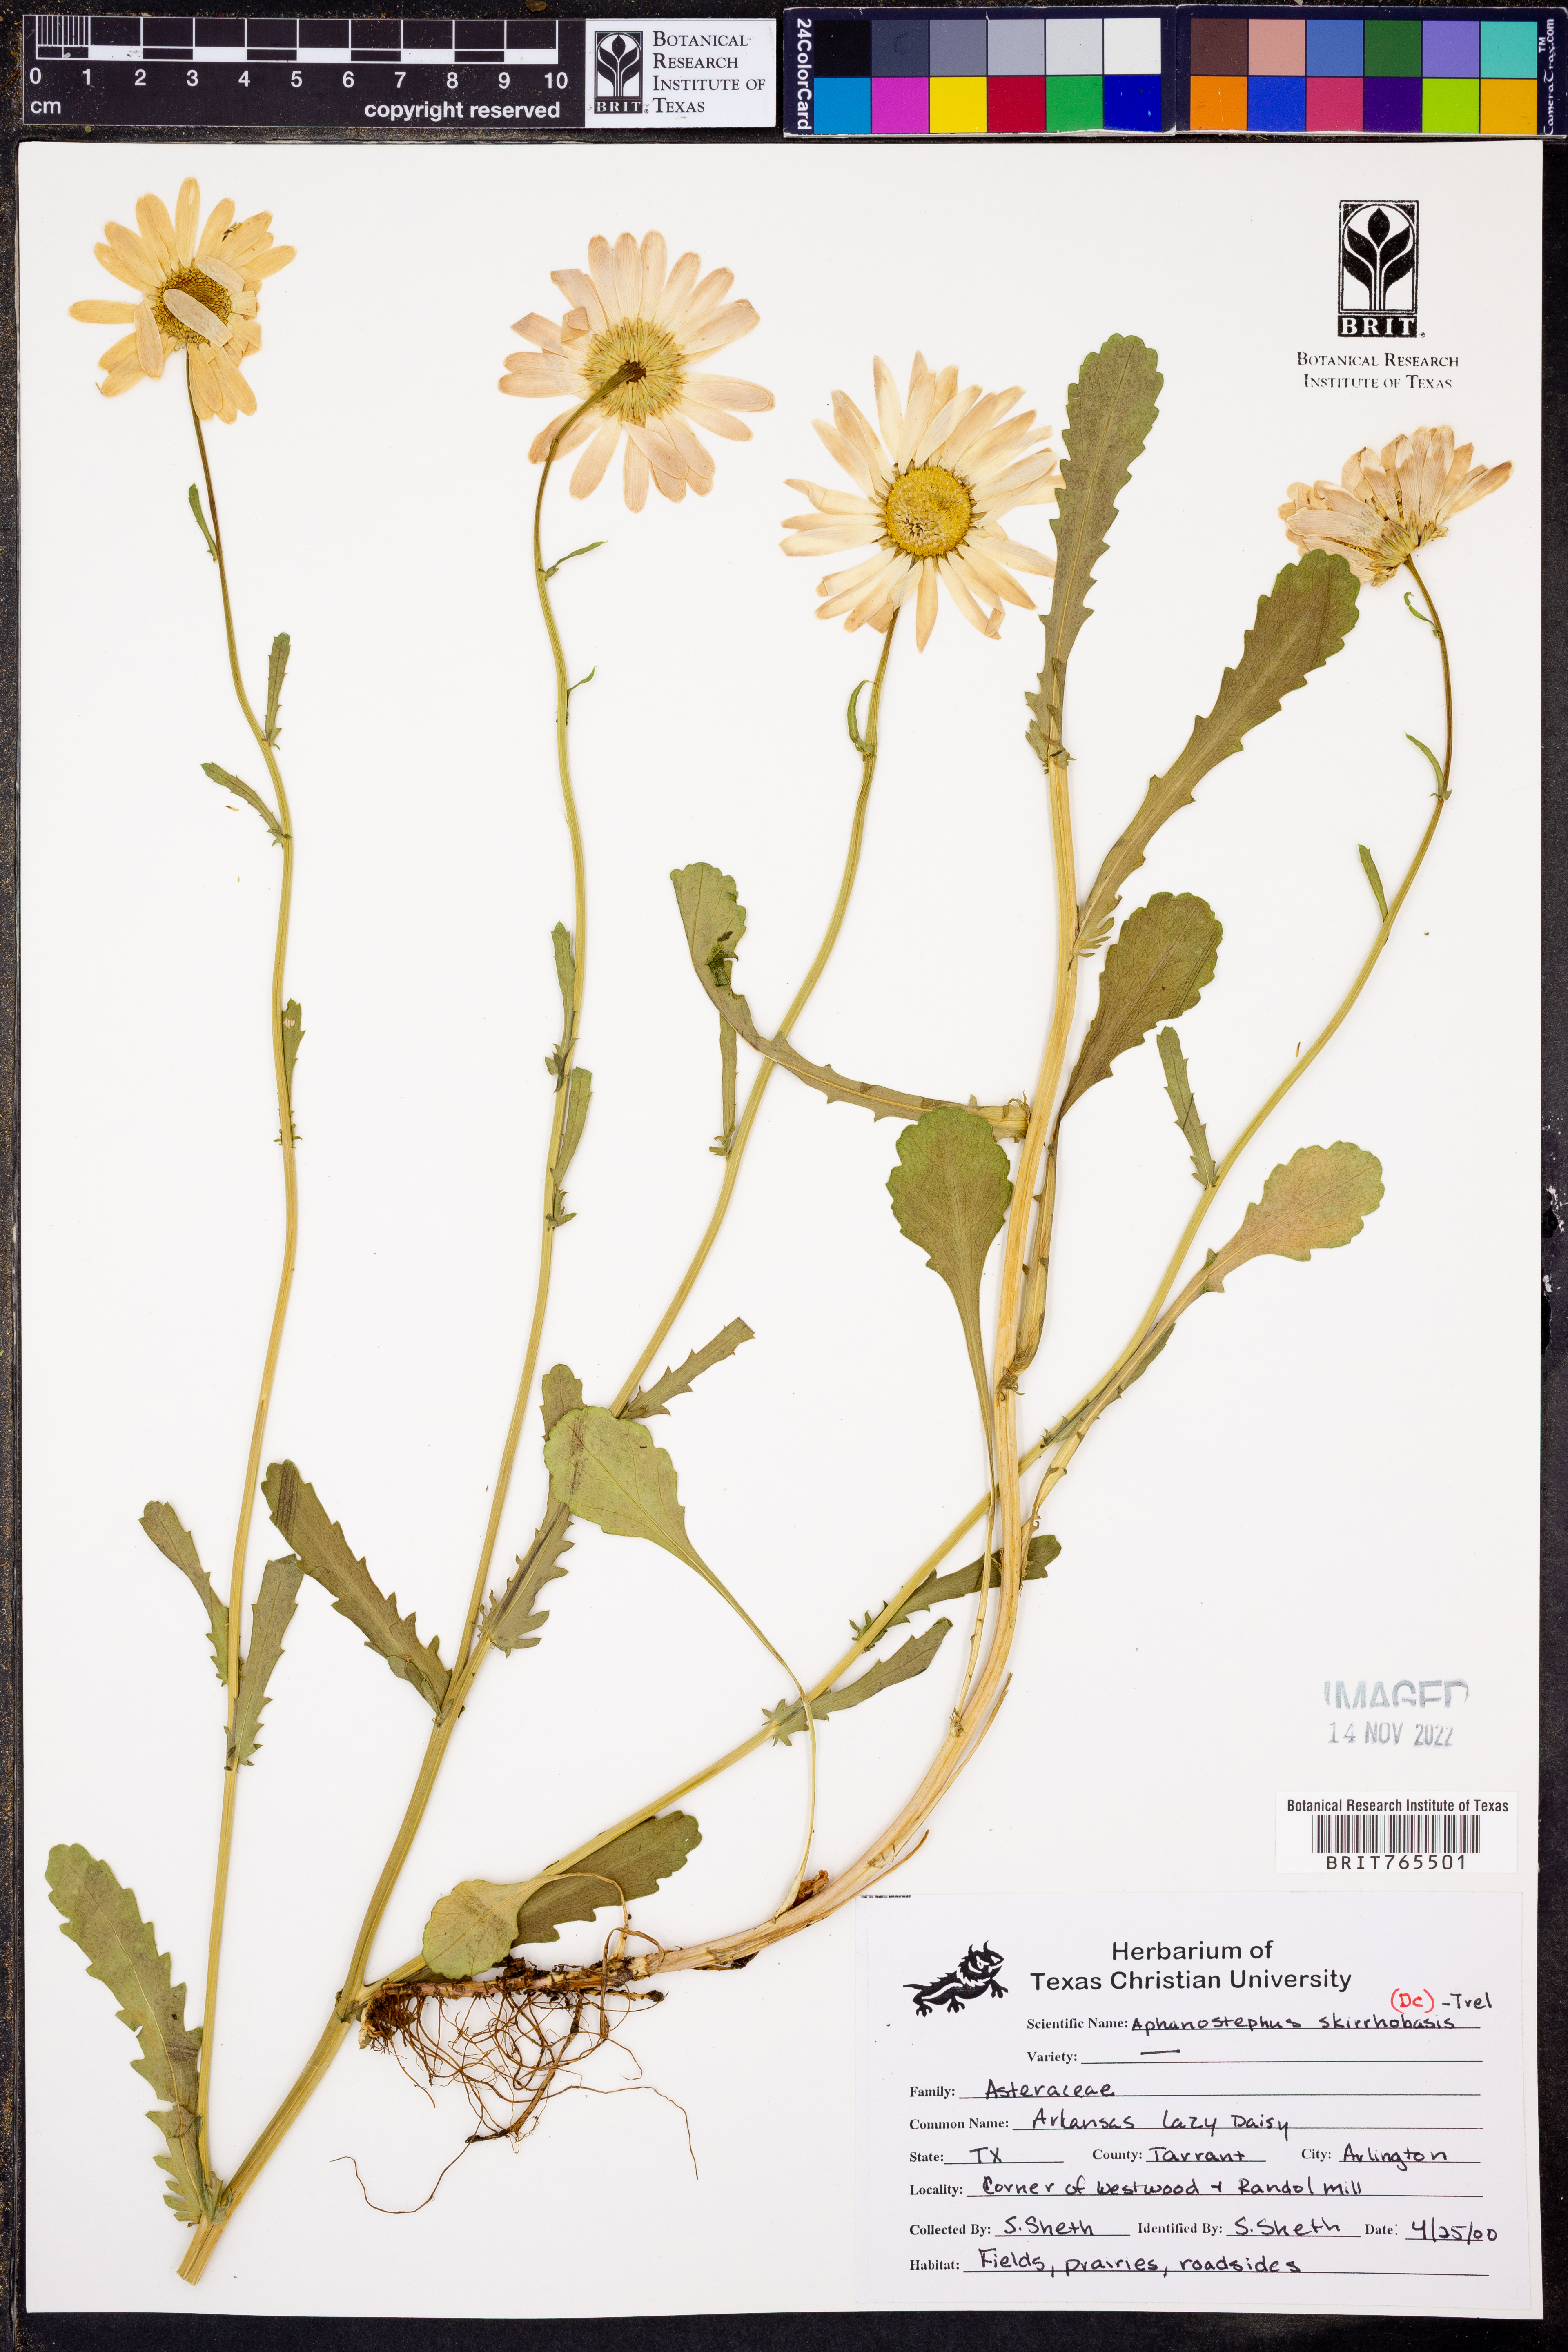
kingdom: Plantae
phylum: Tracheophyta
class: Magnoliopsida
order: Asterales
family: Asteraceae
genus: Aphanostephus
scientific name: Aphanostephus skirrhobasis
